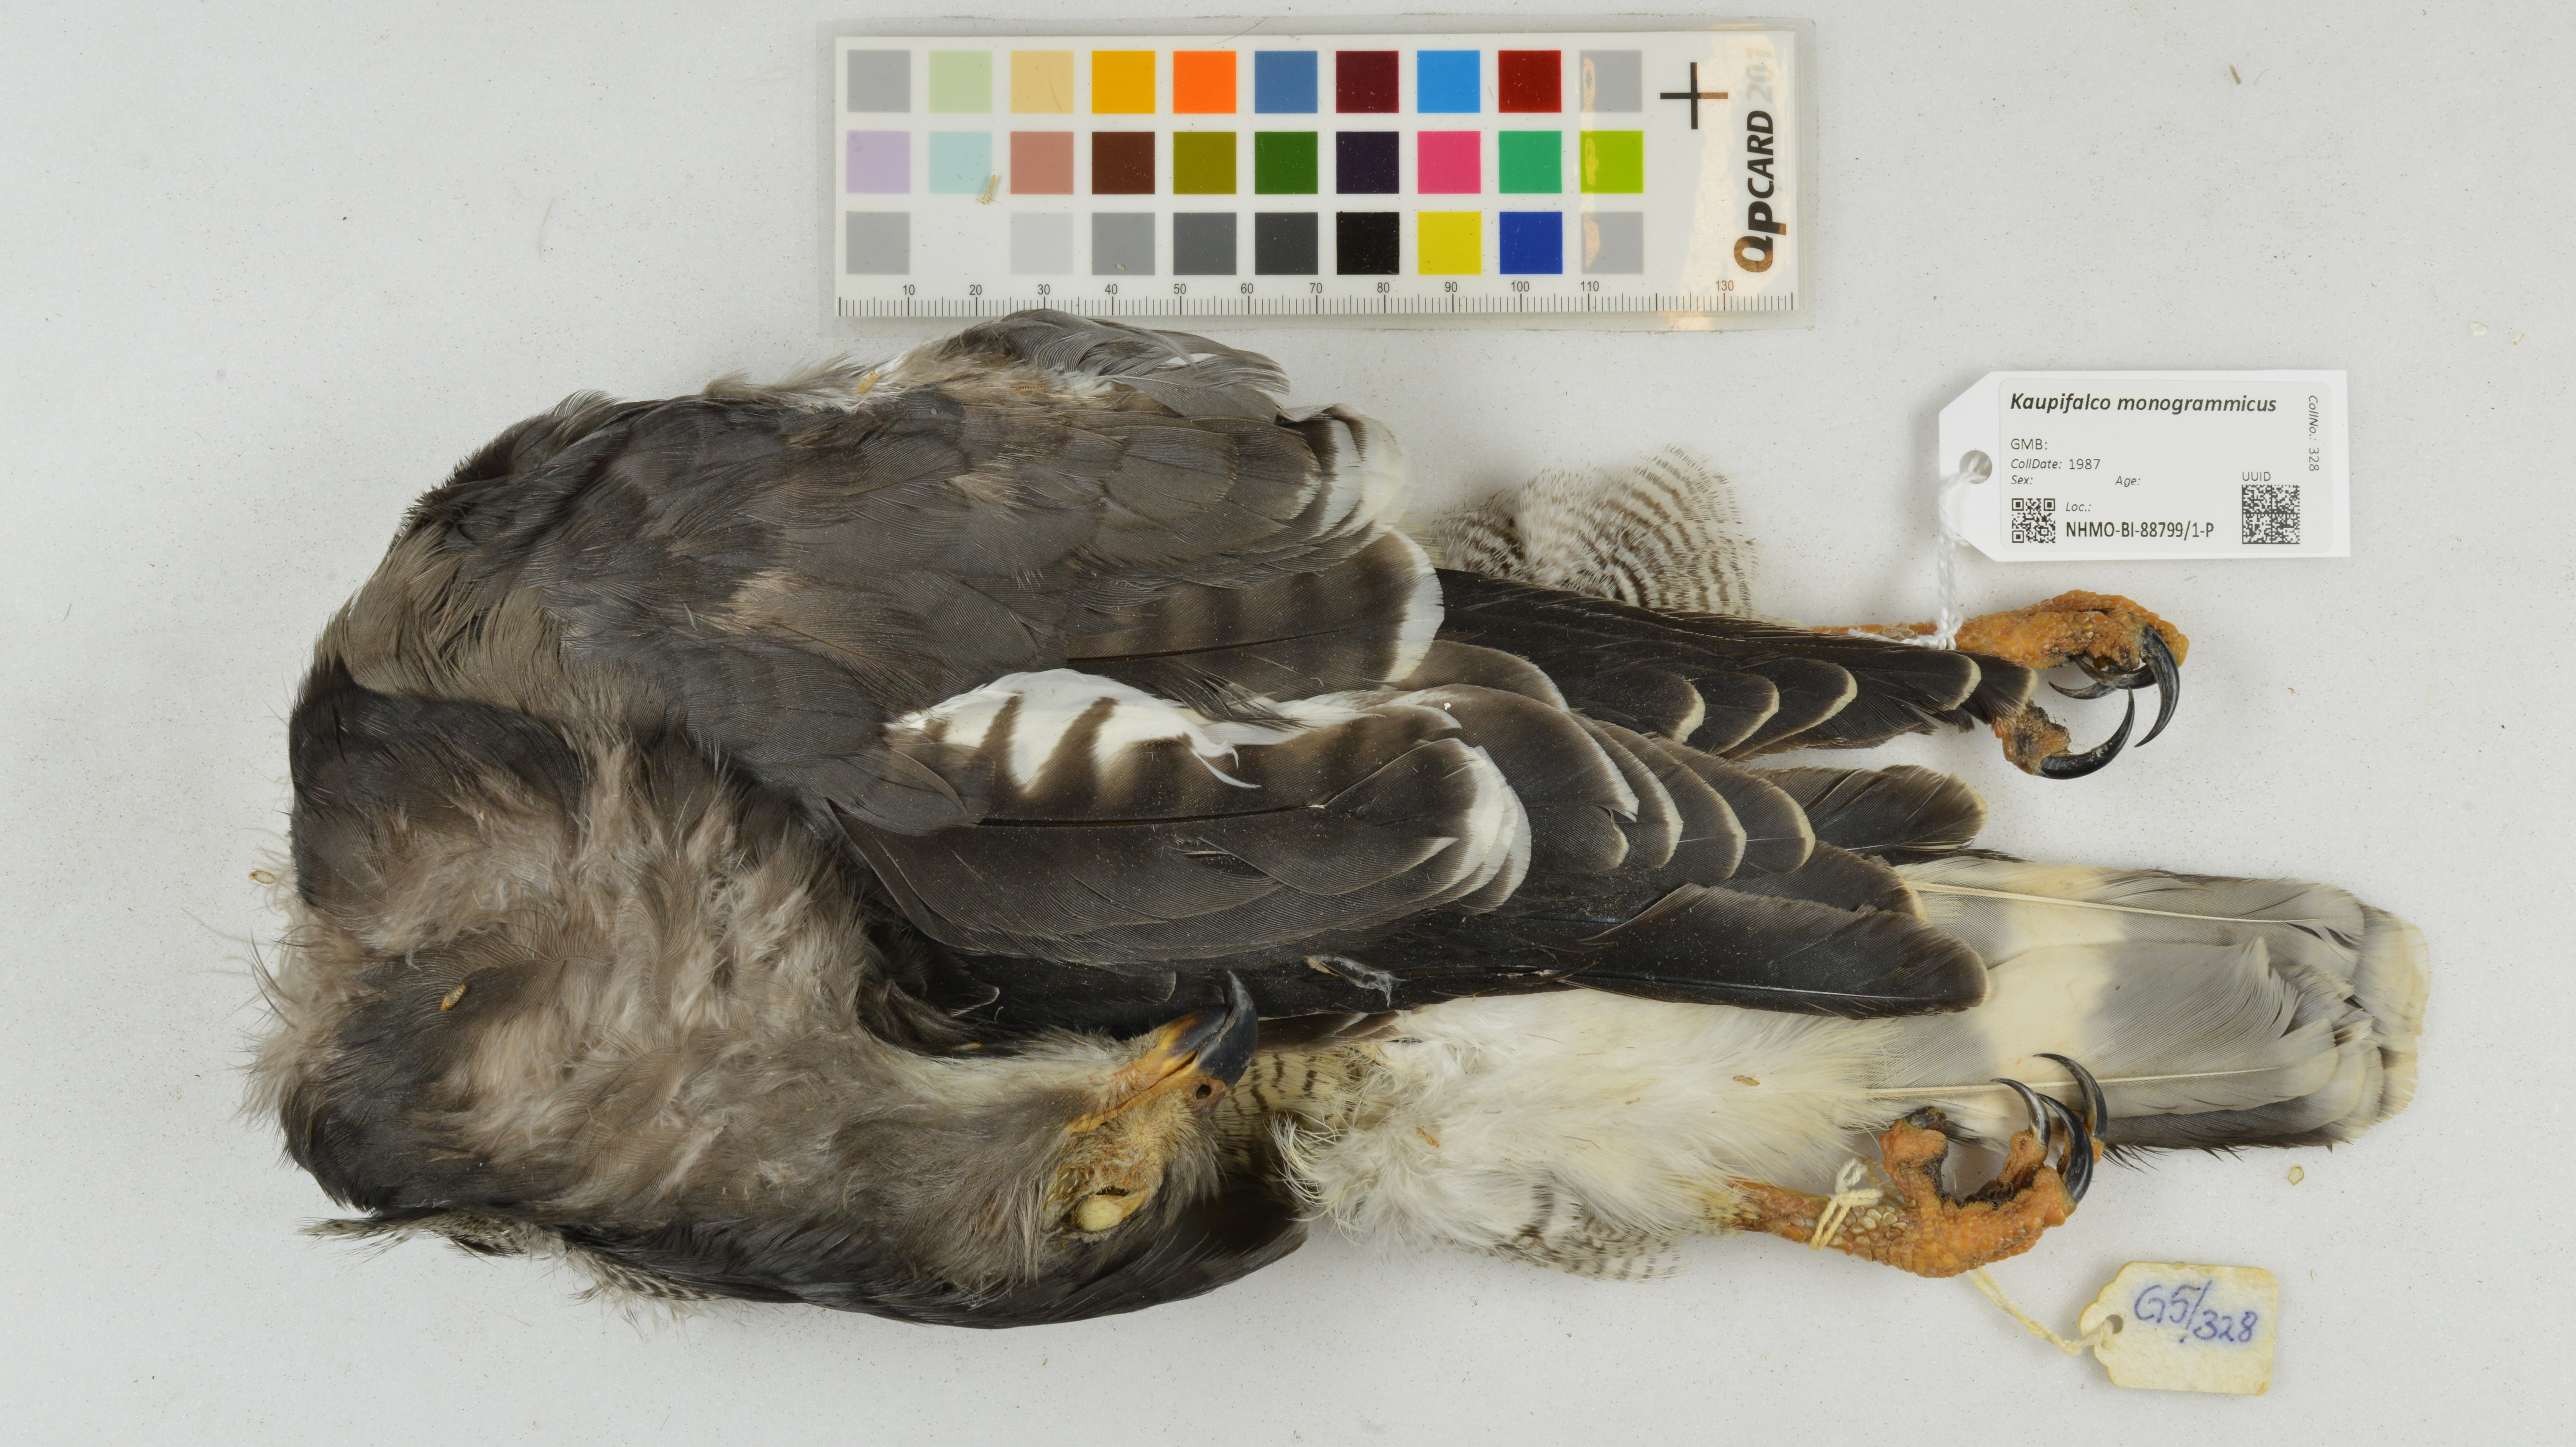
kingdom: Animalia
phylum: Chordata
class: Aves
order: Accipitriformes
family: Accipitridae
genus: Kaupifalco
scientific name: Kaupifalco monogrammicus
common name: Lizard buzzard
